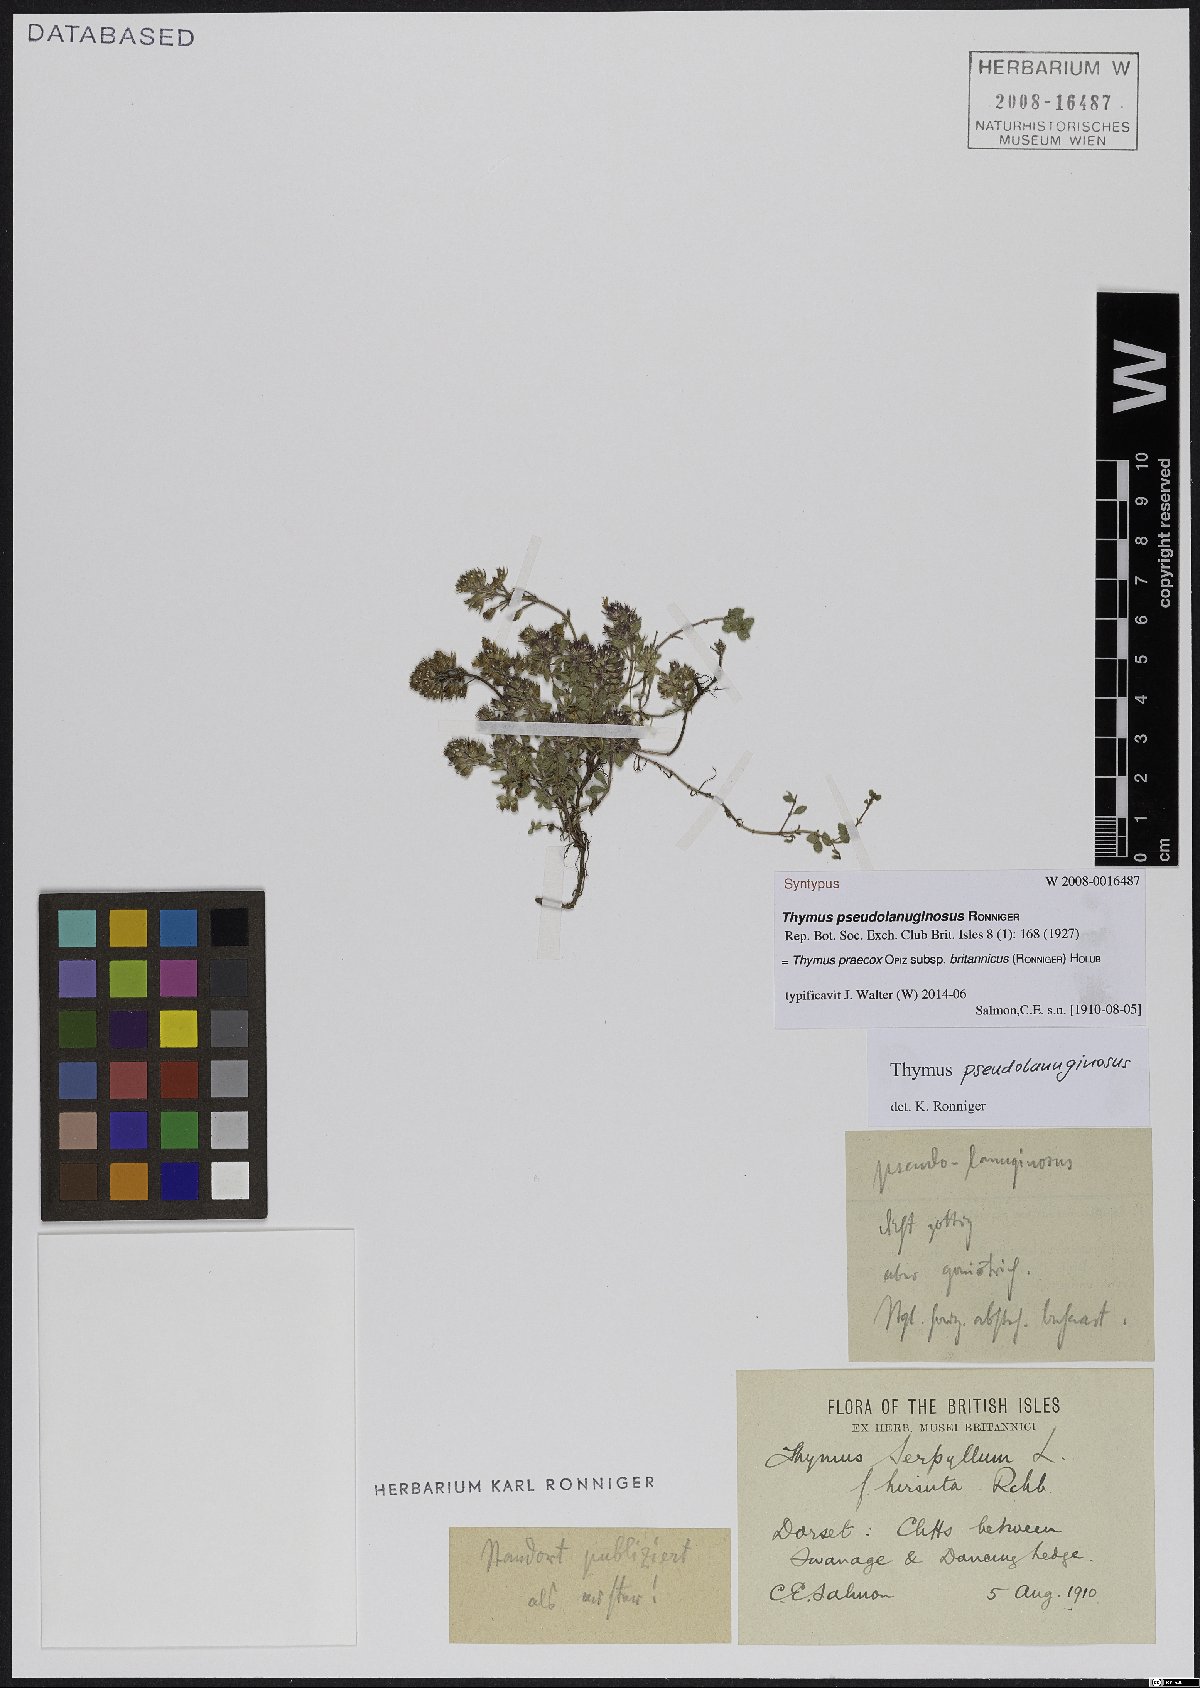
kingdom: Plantae
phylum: Tracheophyta
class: Magnoliopsida
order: Lamiales
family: Lamiaceae
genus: Thymus
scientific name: Thymus praecox
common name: Wild thyme
